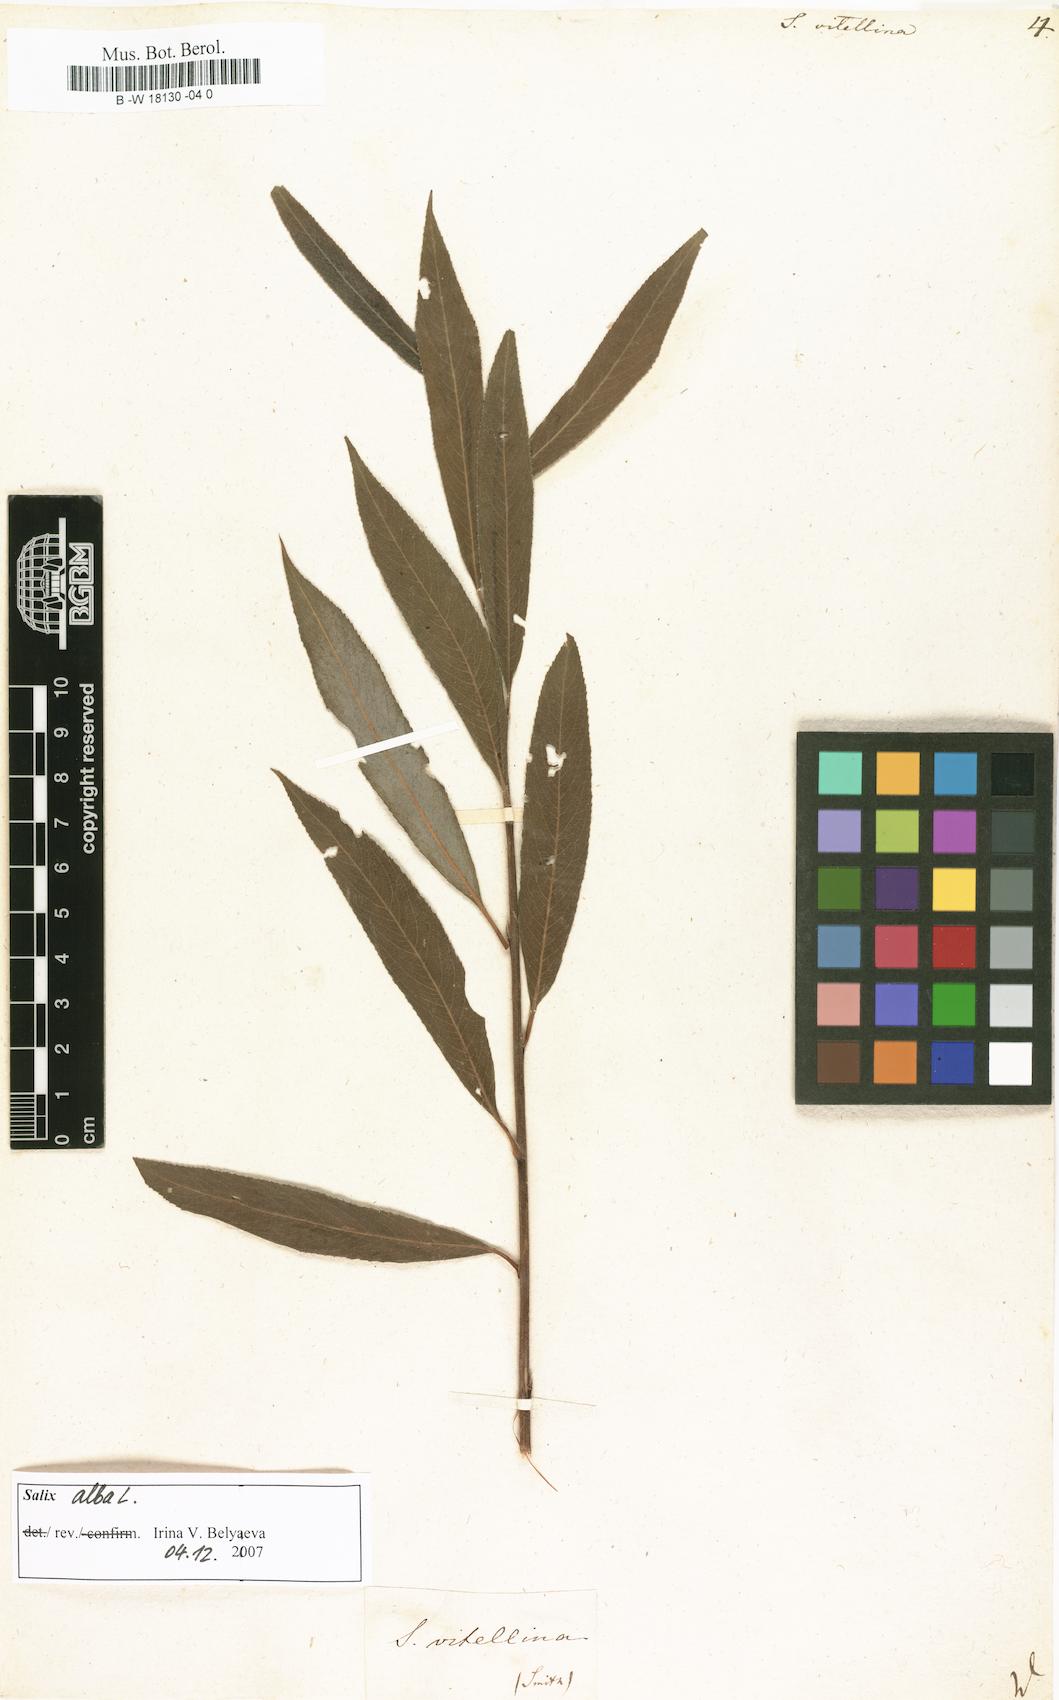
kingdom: Plantae
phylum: Tracheophyta
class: Magnoliopsida
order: Malpighiales
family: Salicaceae
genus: Salix
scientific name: Salix alba
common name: White willow
